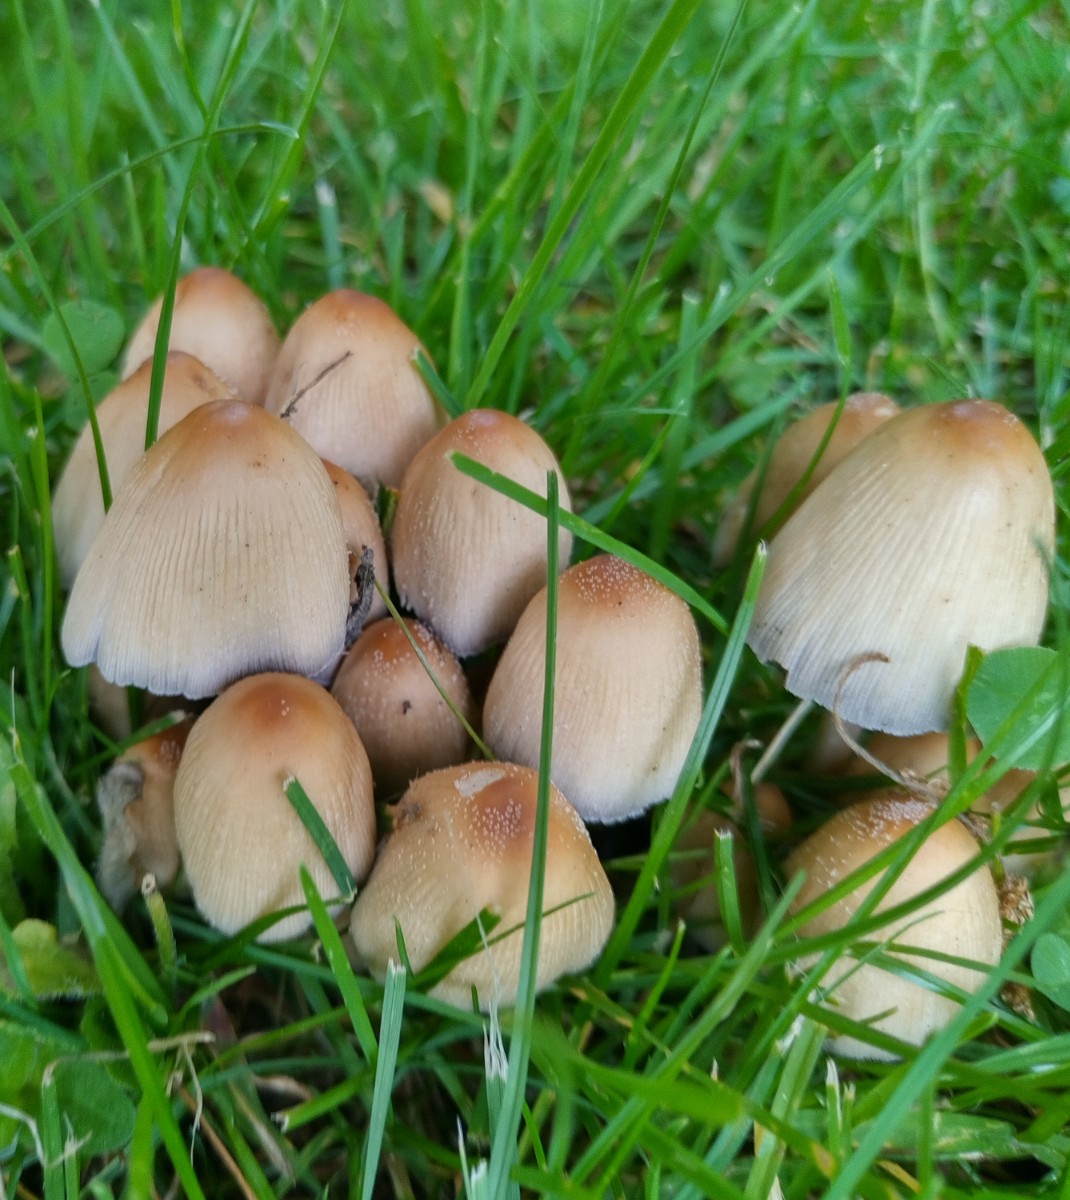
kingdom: Fungi
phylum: Basidiomycota
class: Agaricomycetes
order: Agaricales
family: Psathyrellaceae
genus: Coprinellus
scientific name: Coprinellus micaceus
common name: glimmer-blækhat
